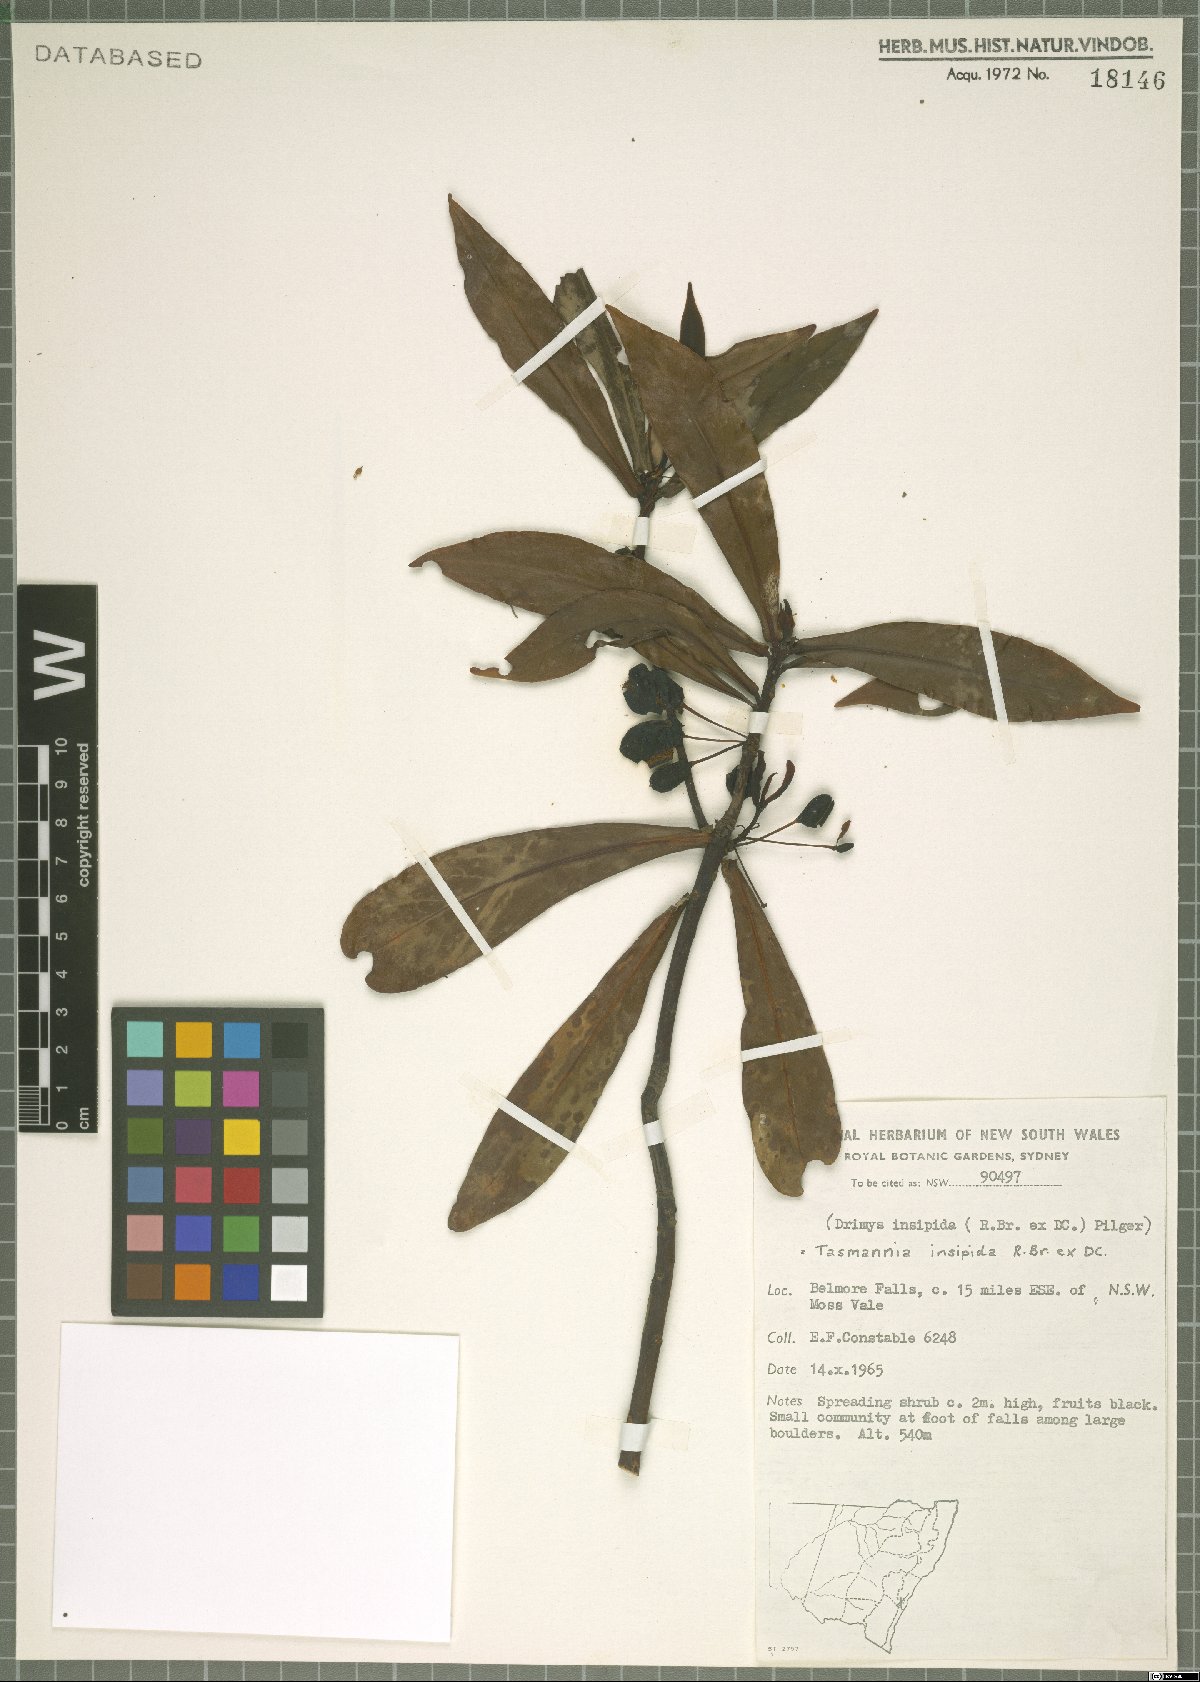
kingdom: Plantae
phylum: Tracheophyta
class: Magnoliopsida
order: Canellales
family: Winteraceae
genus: Drimys
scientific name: Drimys insipida
